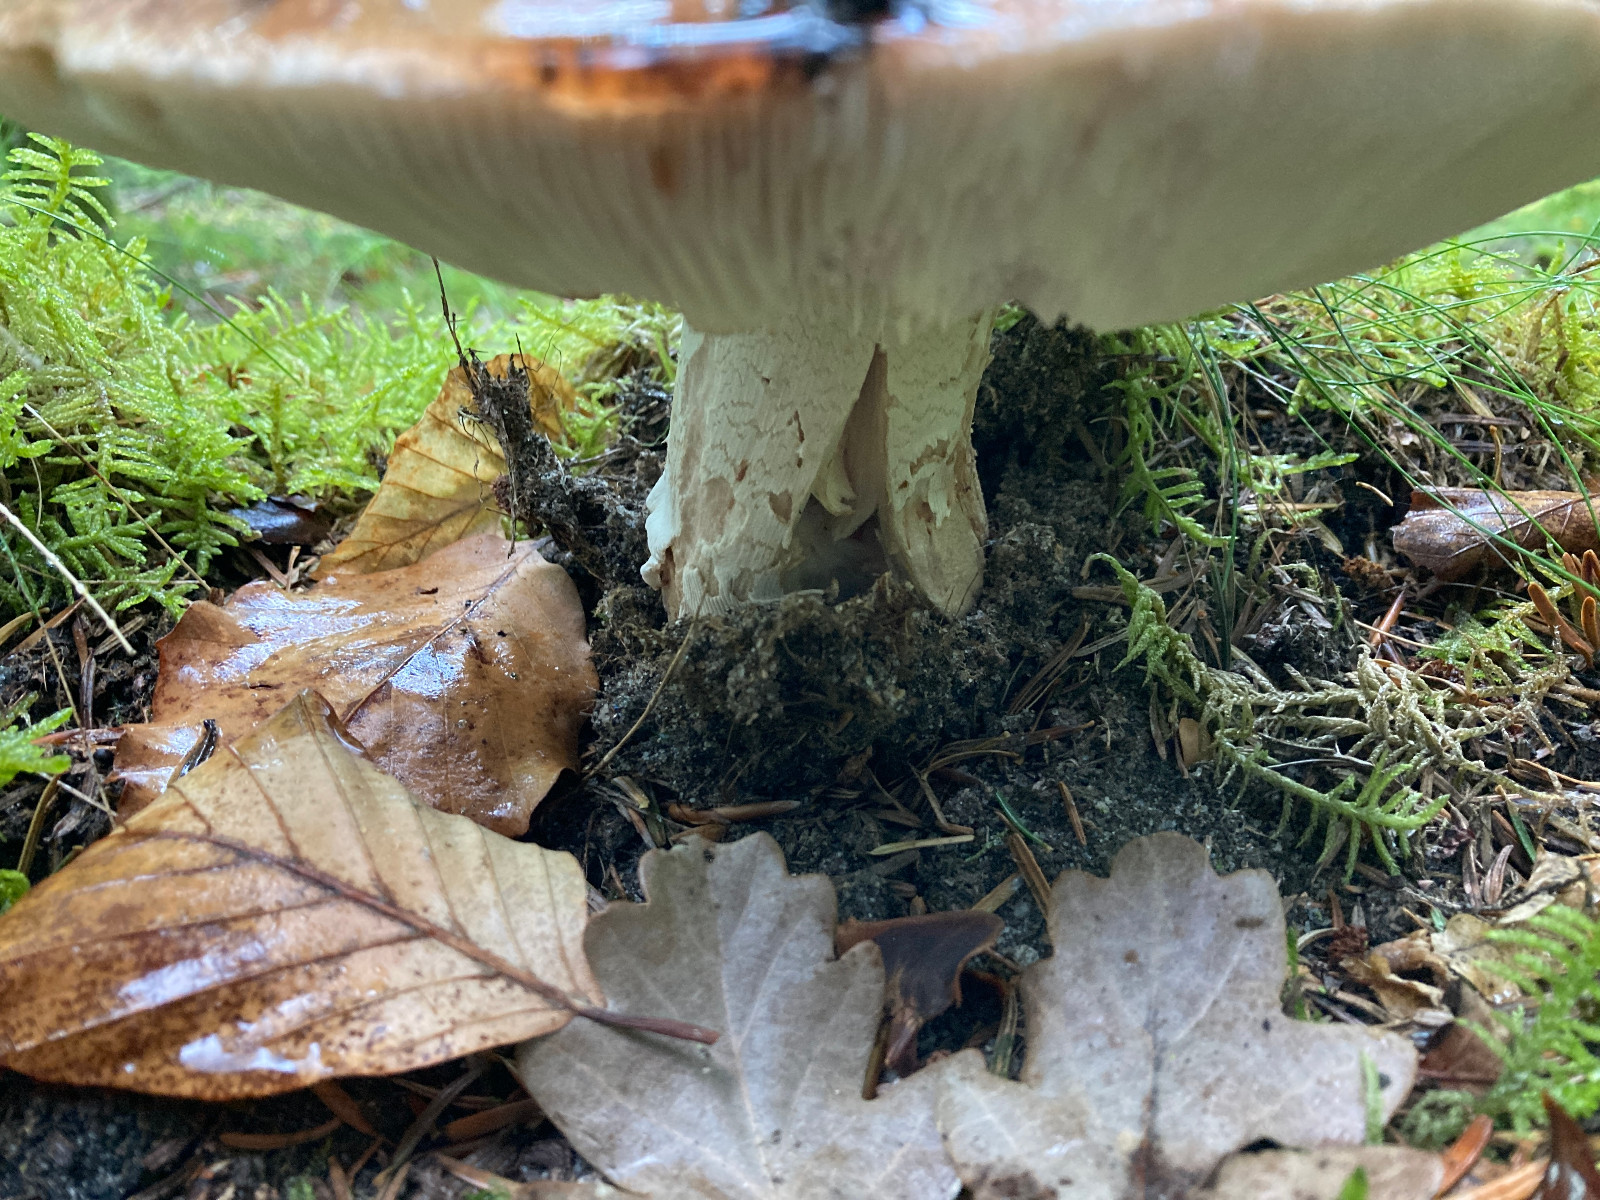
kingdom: Fungi
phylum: Basidiomycota
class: Agaricomycetes
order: Agaricales
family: Amanitaceae
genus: Amanita
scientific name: Amanita rubescens
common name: rødmende fluesvamp
